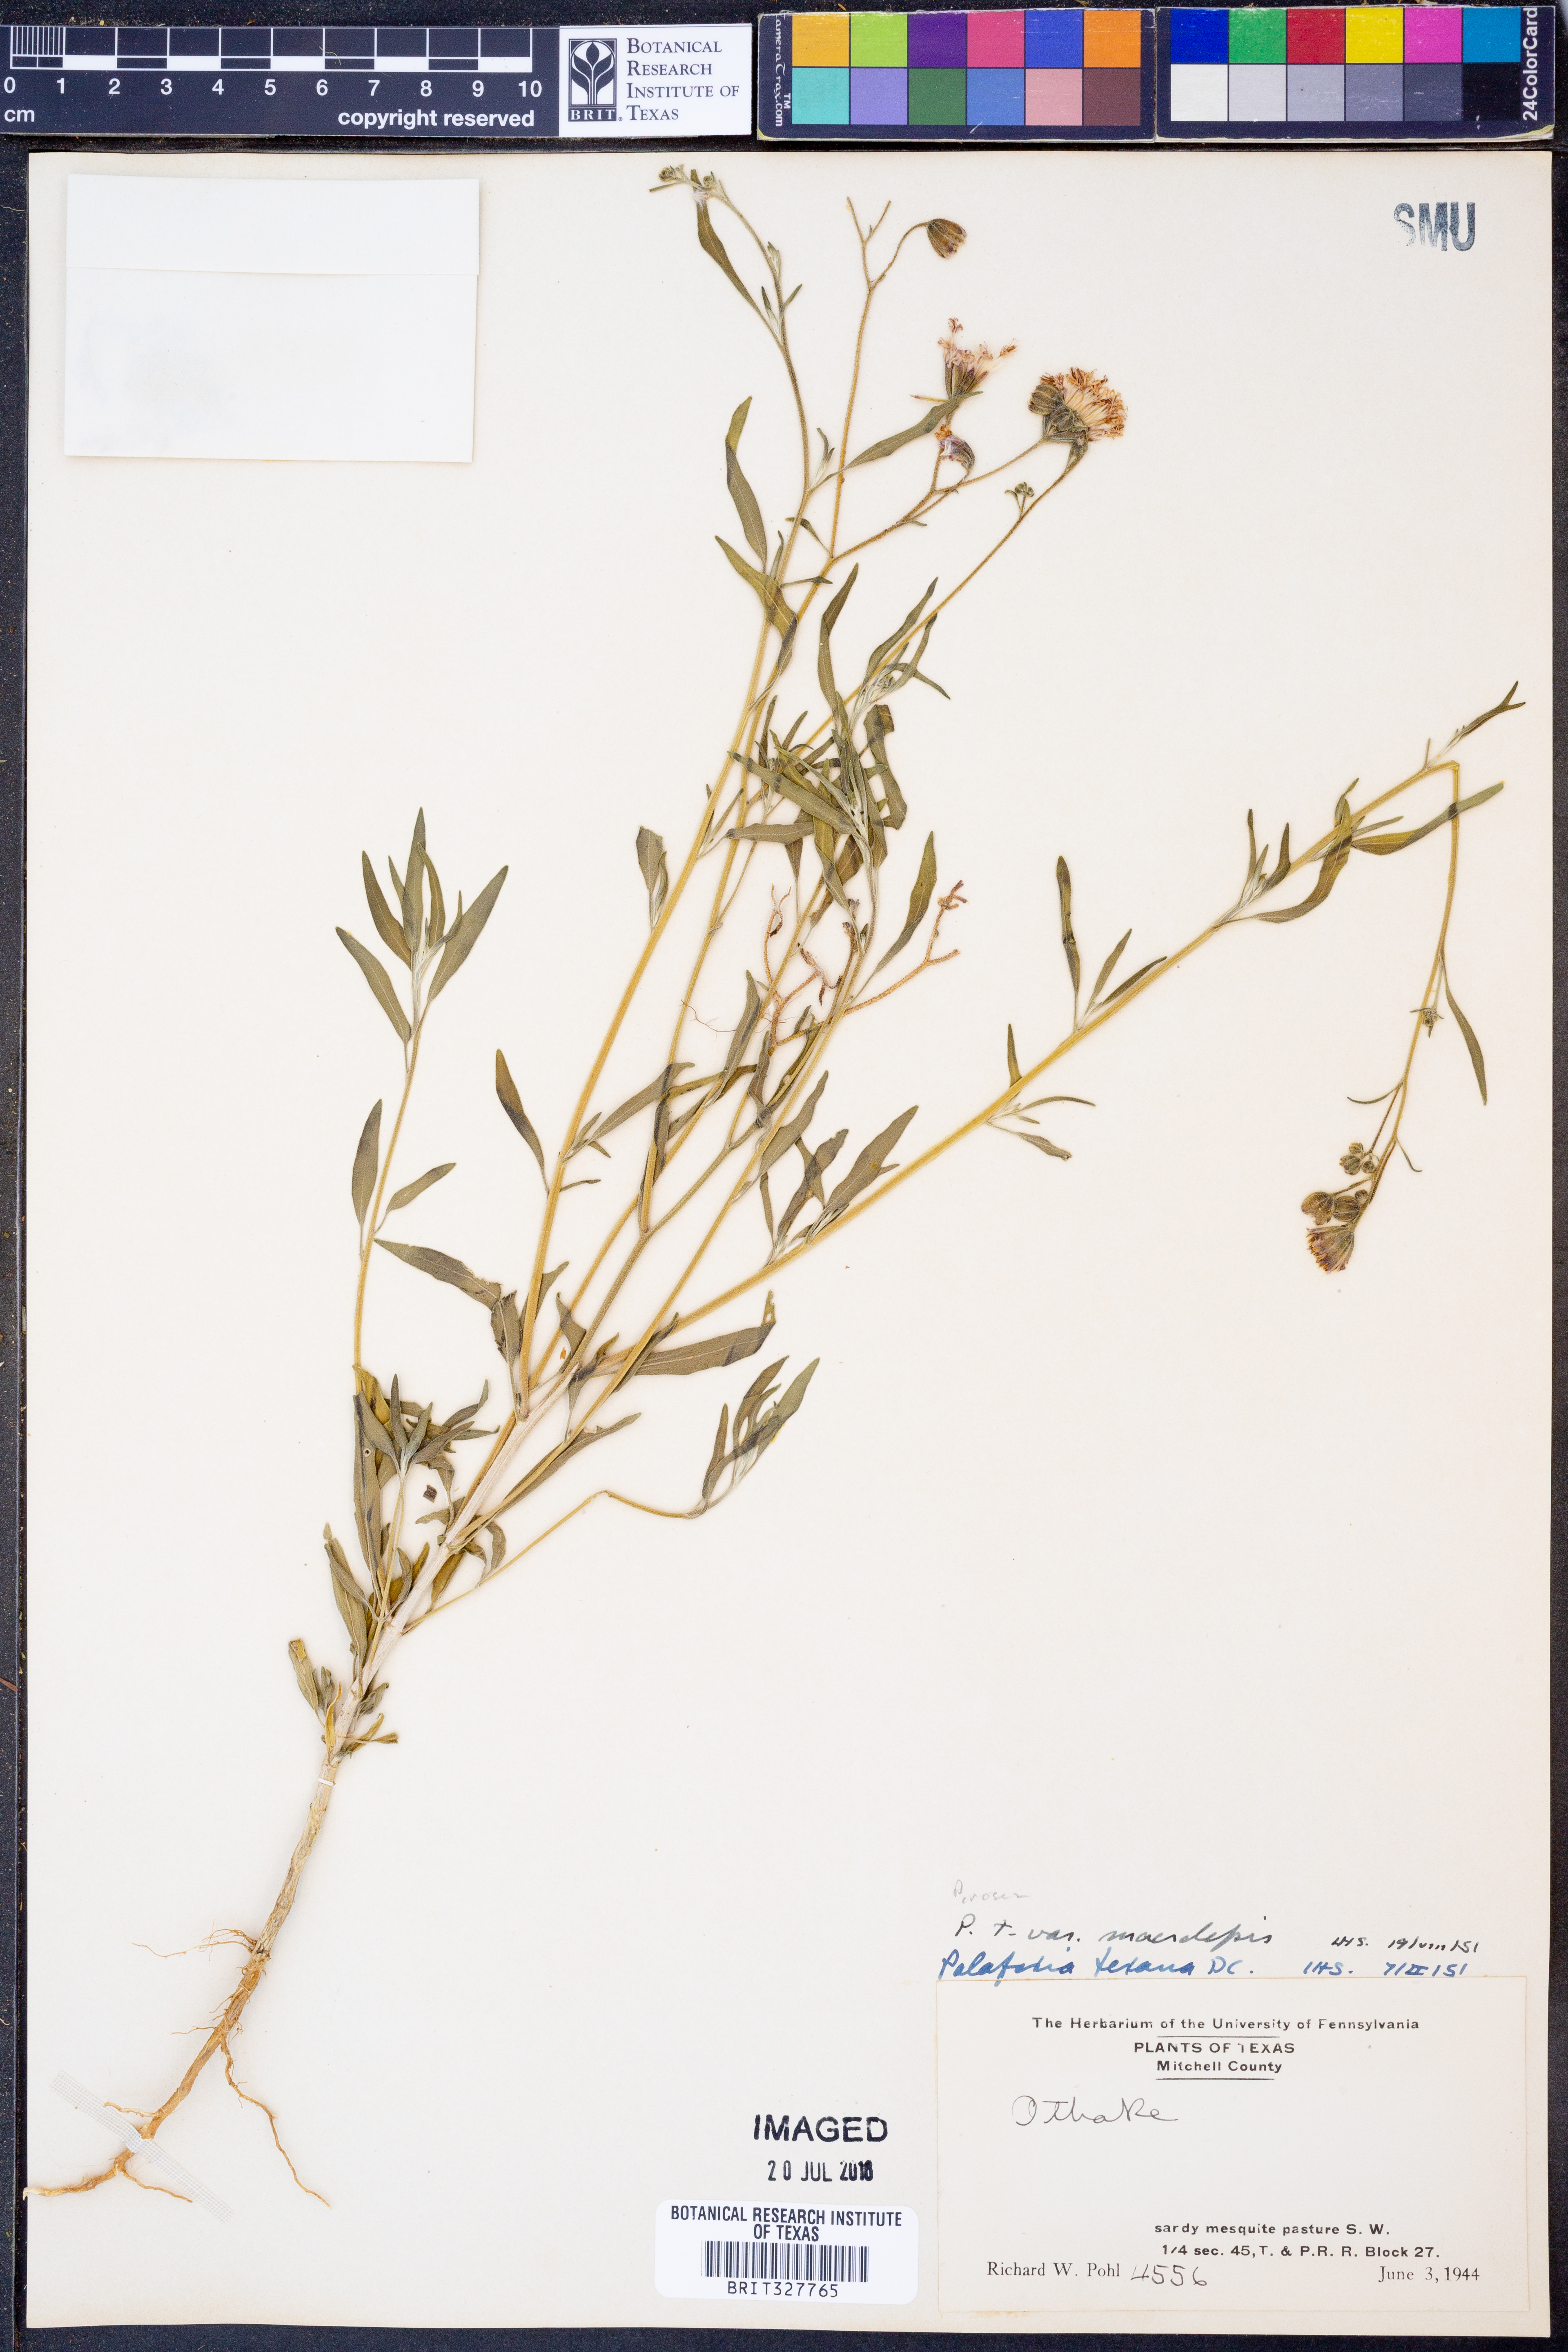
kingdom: Plantae
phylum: Tracheophyta
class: Magnoliopsida
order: Asterales
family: Asteraceae
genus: Palafoxia
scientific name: Palafoxia rosea
